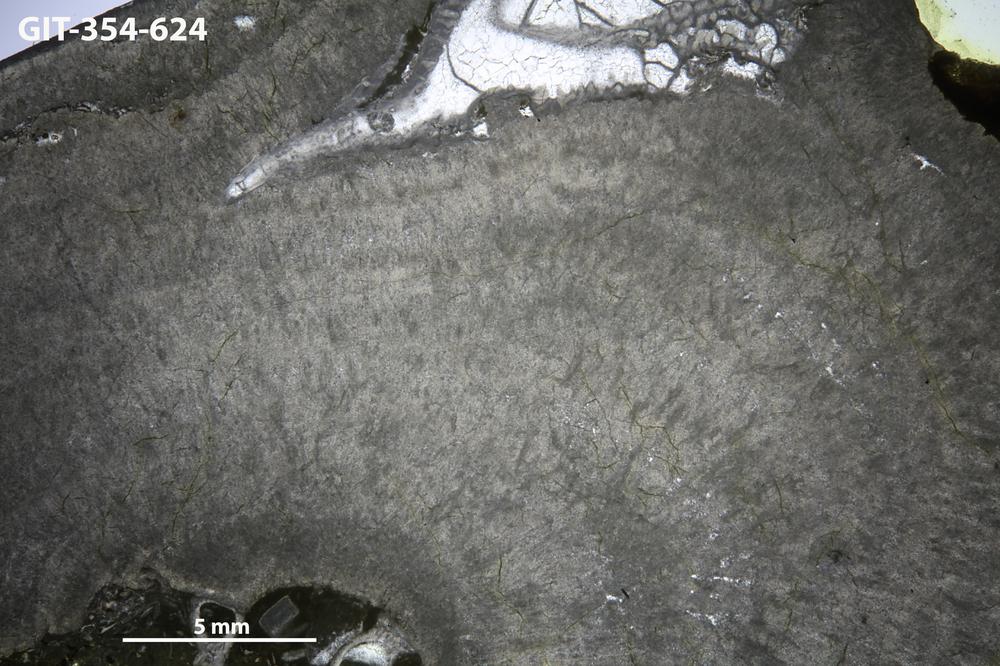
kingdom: Animalia
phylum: Porifera
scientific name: Porifera
